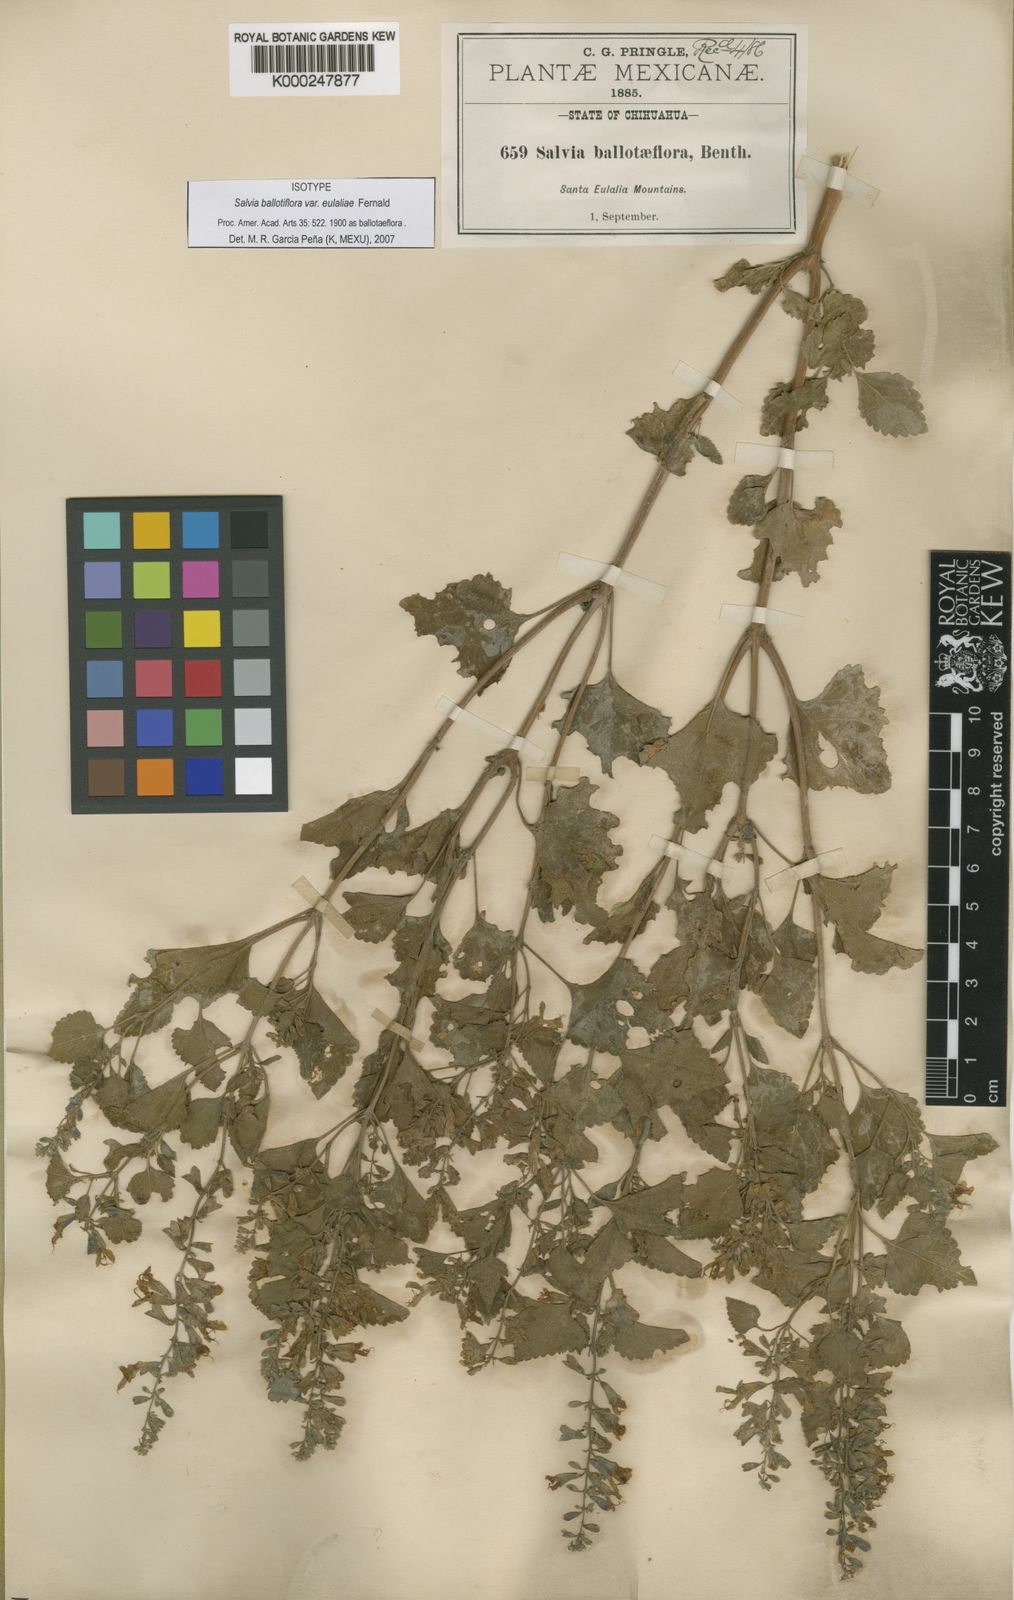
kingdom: Plantae
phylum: Tracheophyta
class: Magnoliopsida
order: Lamiales
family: Lamiaceae
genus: Salvia
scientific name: Salvia
